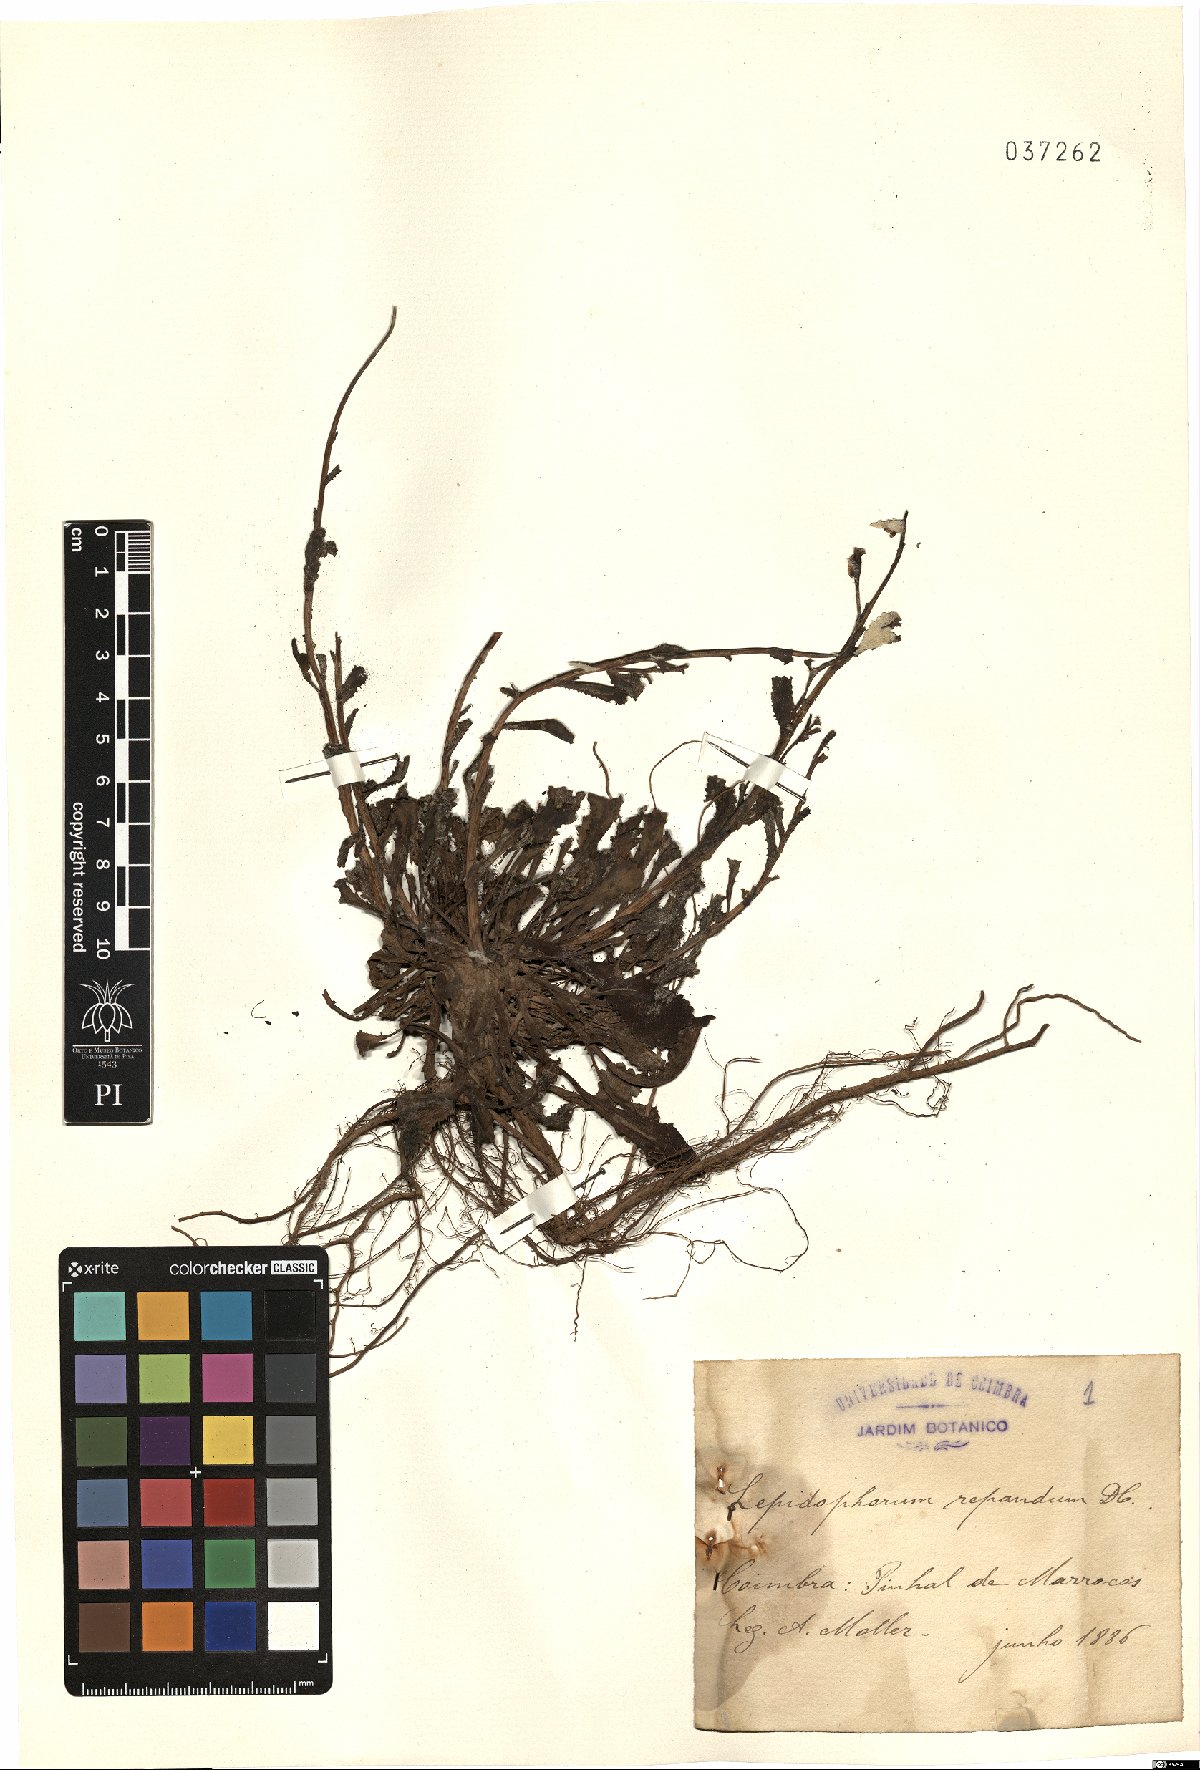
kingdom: Plantae
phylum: Tracheophyta
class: Magnoliopsida
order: Asterales
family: Asteraceae
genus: Lepidophorum
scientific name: Lepidophorum repandum
